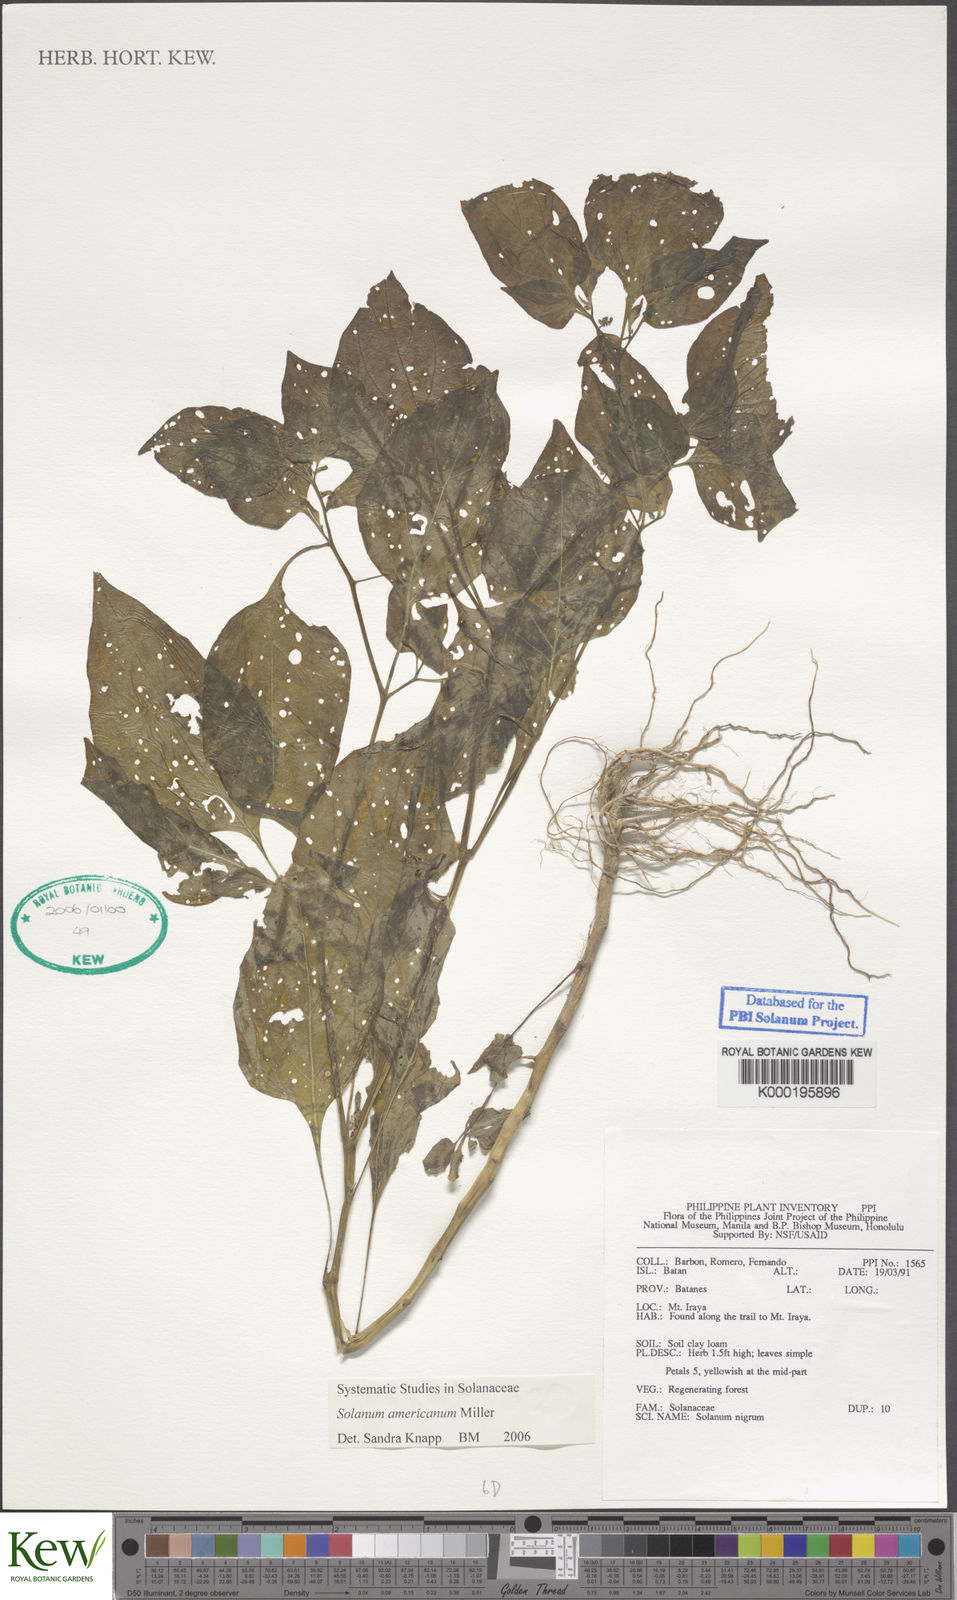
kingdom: Plantae
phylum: Tracheophyta
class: Magnoliopsida
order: Solanales
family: Solanaceae
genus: Solanum
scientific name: Solanum americanum
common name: American black nightshade
